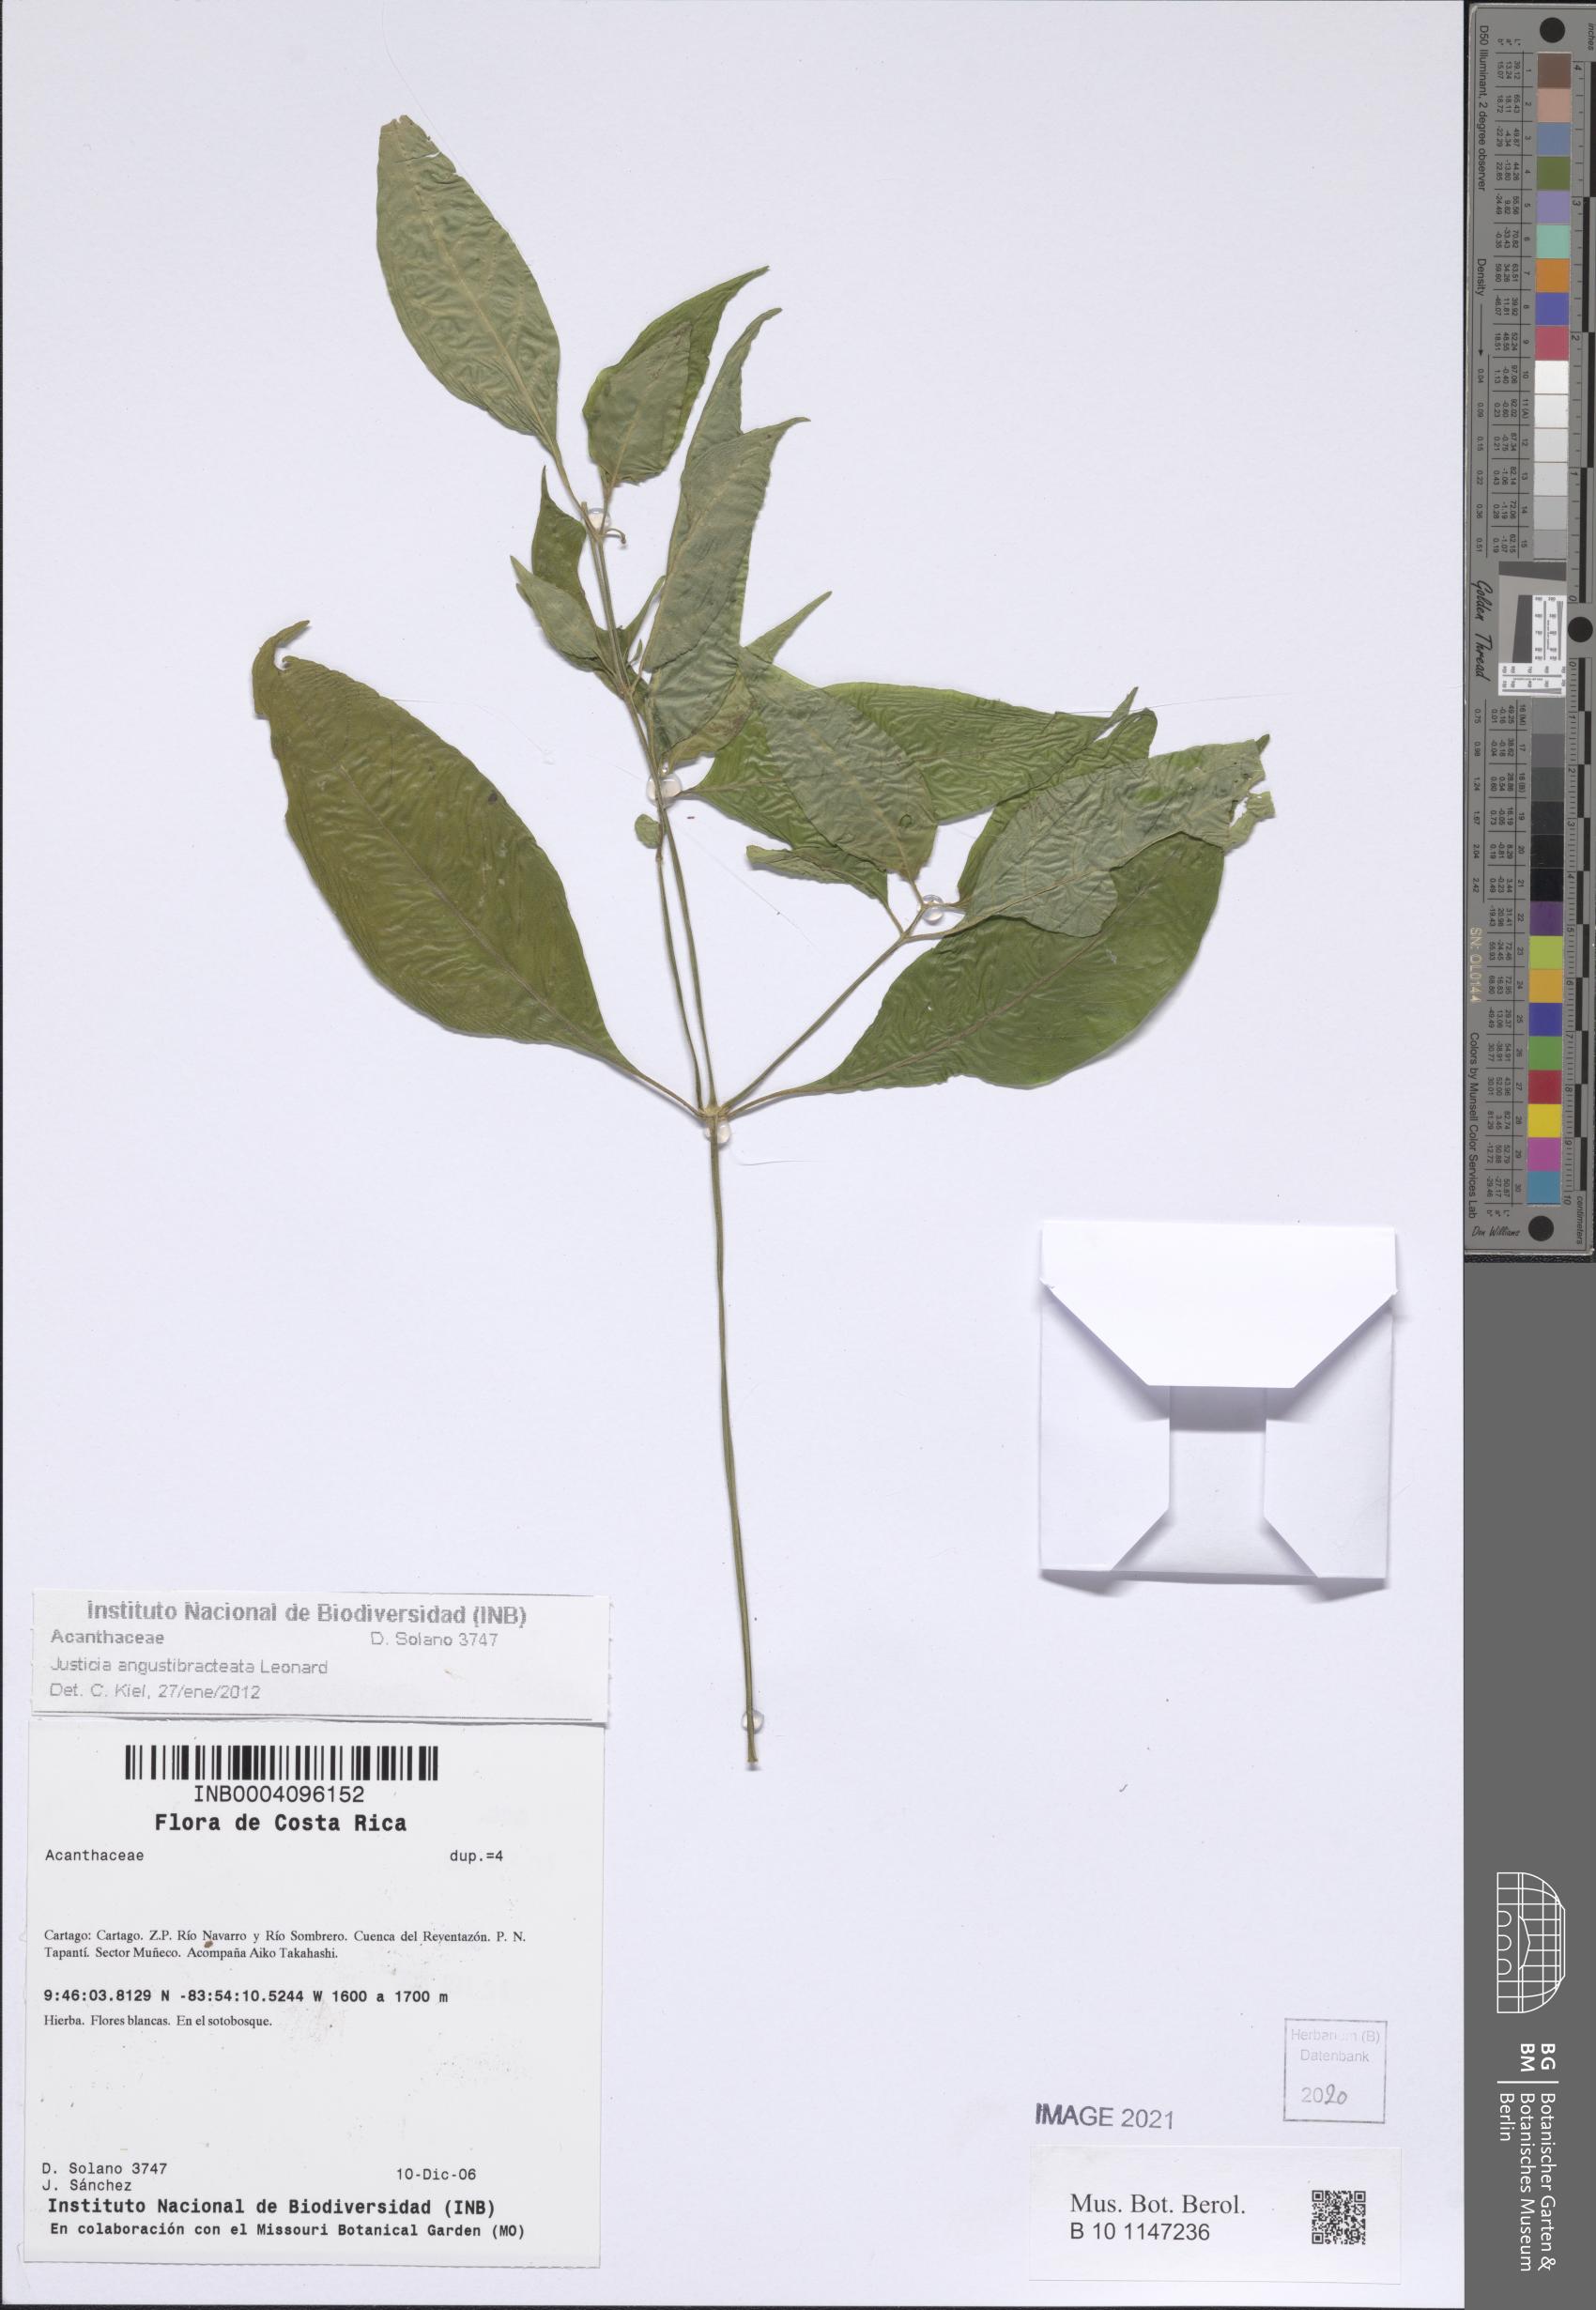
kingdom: Plantae
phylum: Tracheophyta
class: Magnoliopsida
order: Lamiales
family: Acanthaceae
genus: Dianthera
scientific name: Dianthera candelariae
